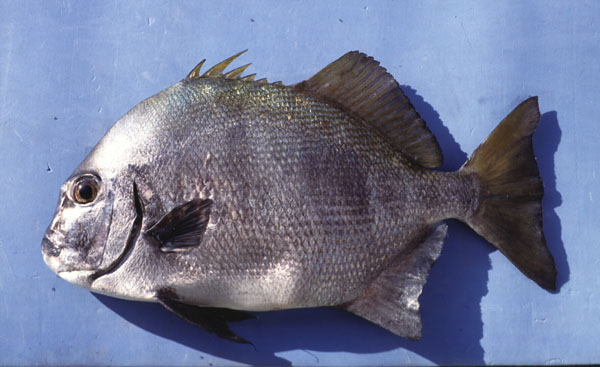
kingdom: Animalia
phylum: Chordata
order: Perciformes
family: Ephippidae
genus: Tripterodon
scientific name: Tripterodon orbis
